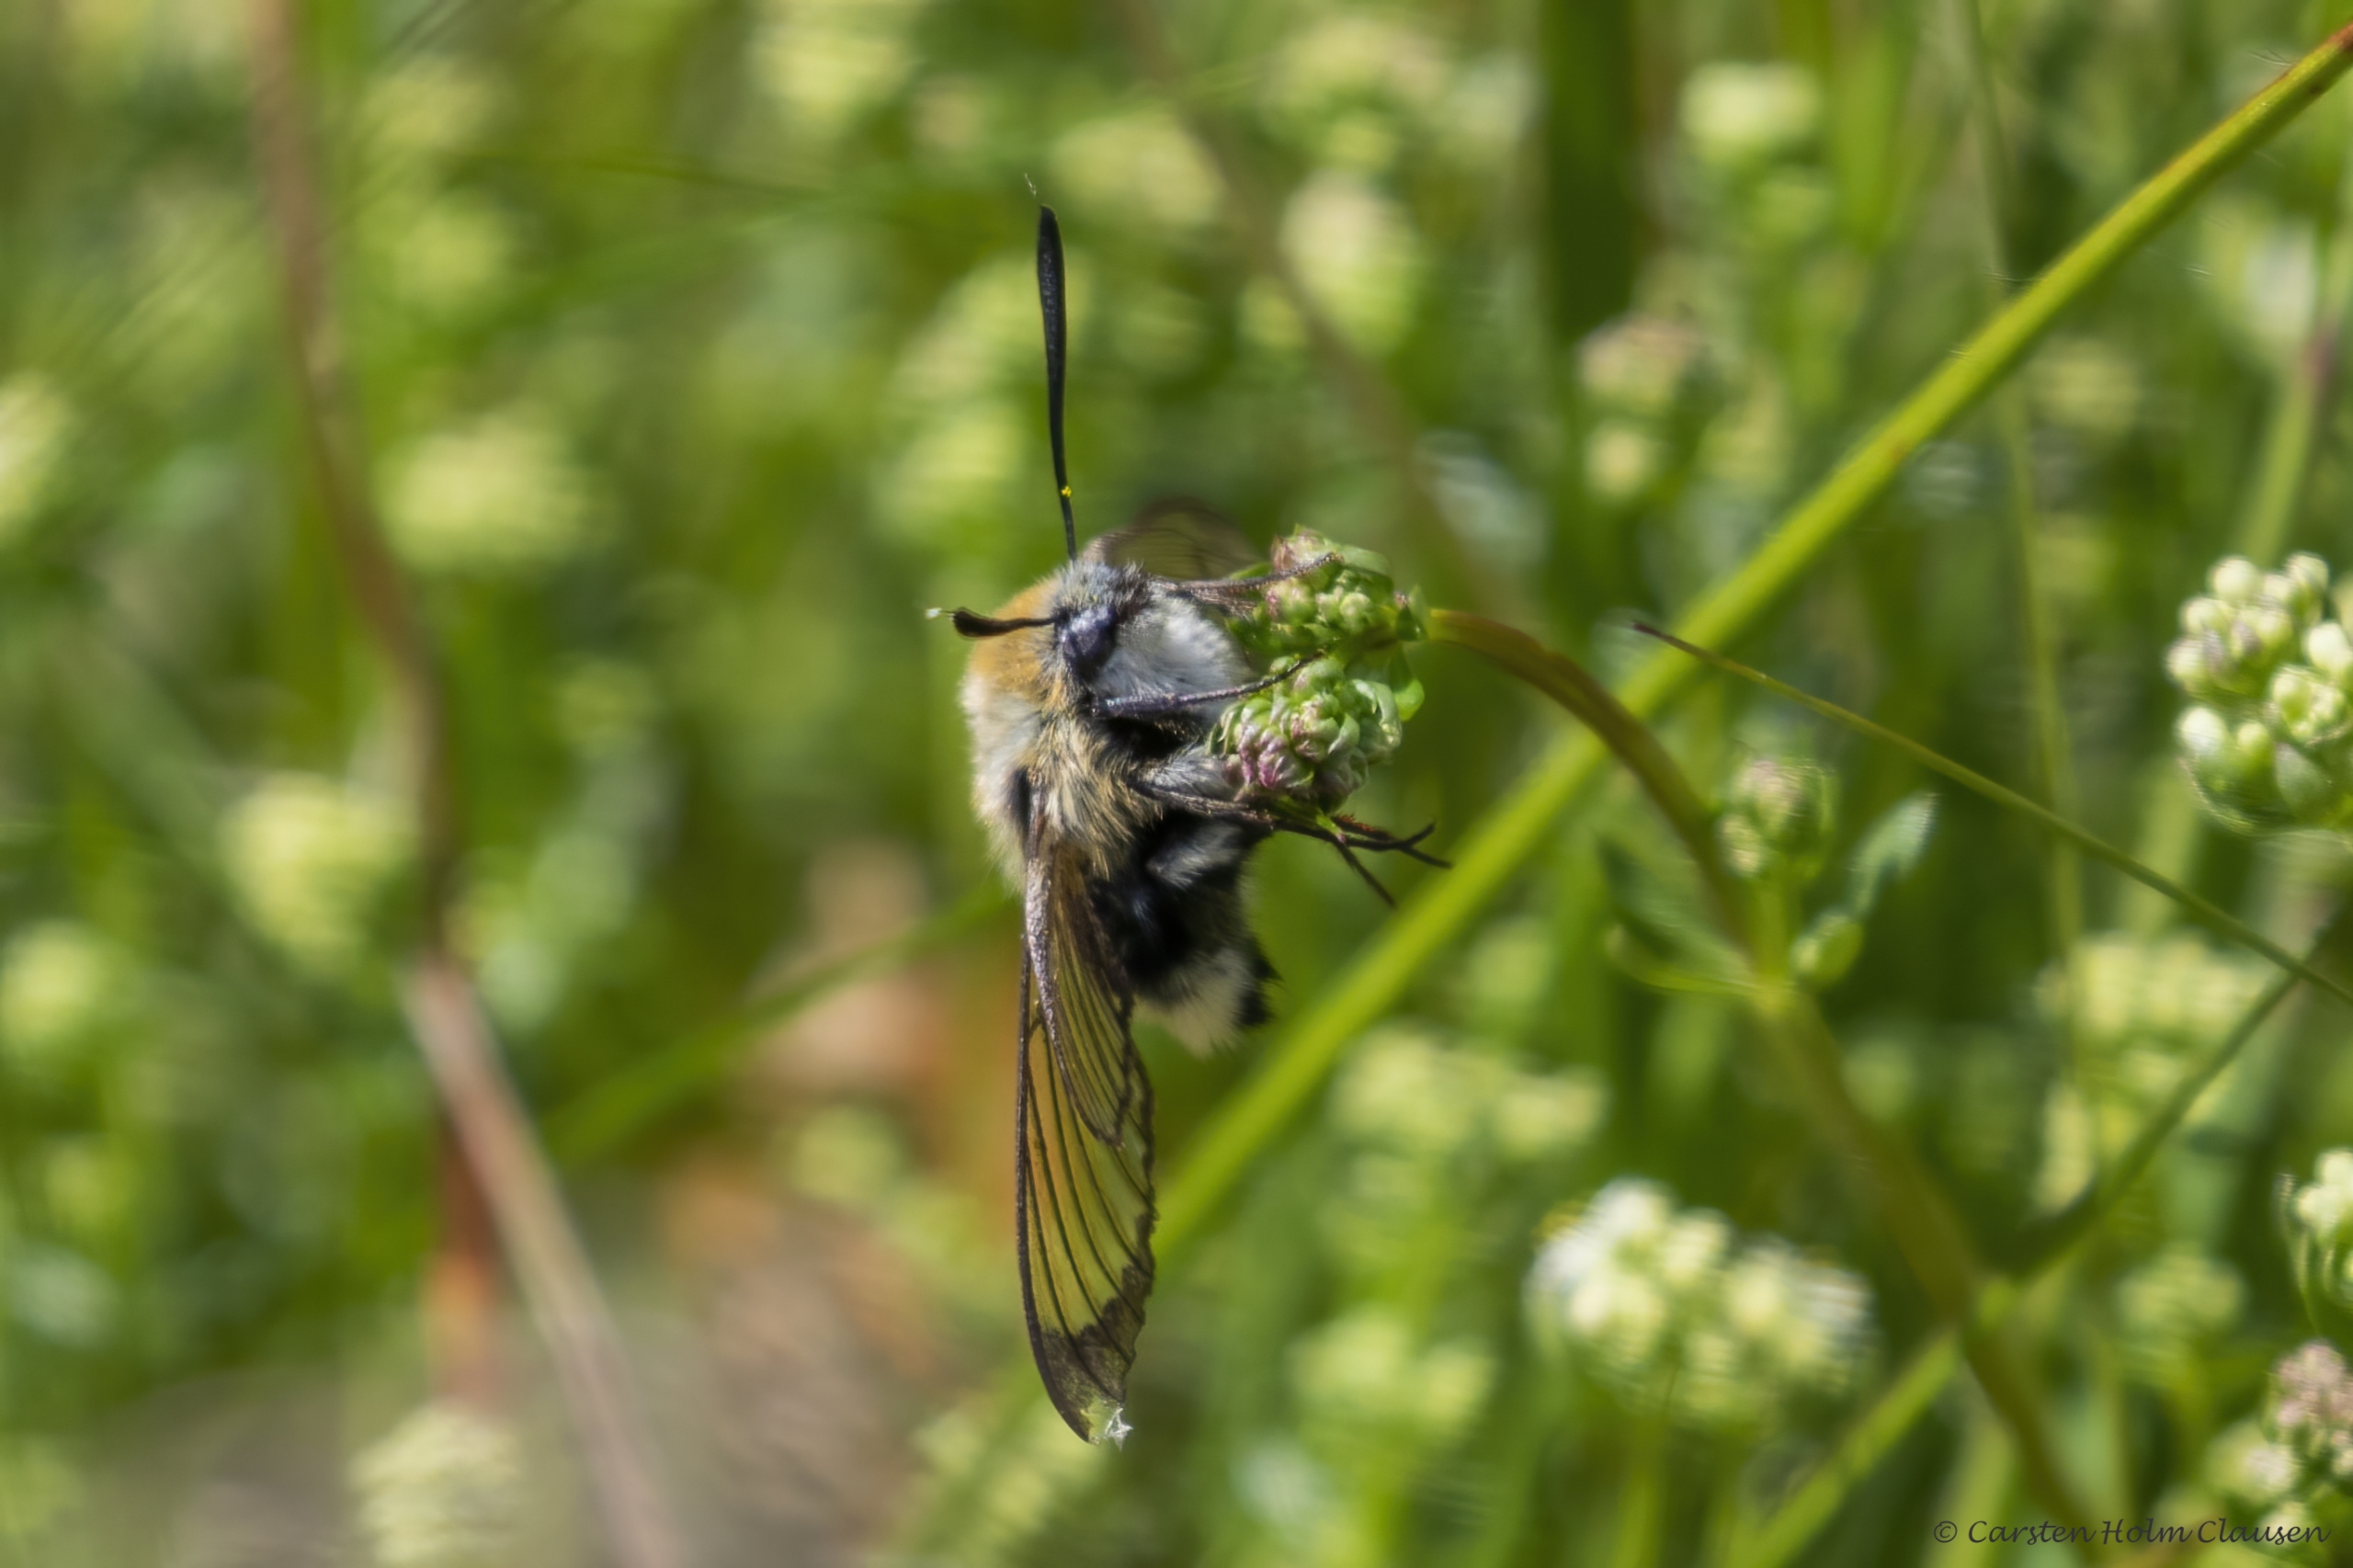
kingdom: Animalia
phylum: Arthropoda
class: Insecta
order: Lepidoptera
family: Sphingidae
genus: Hemaris
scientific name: Hemaris tityus
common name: Smalrandet humlebisværmer
